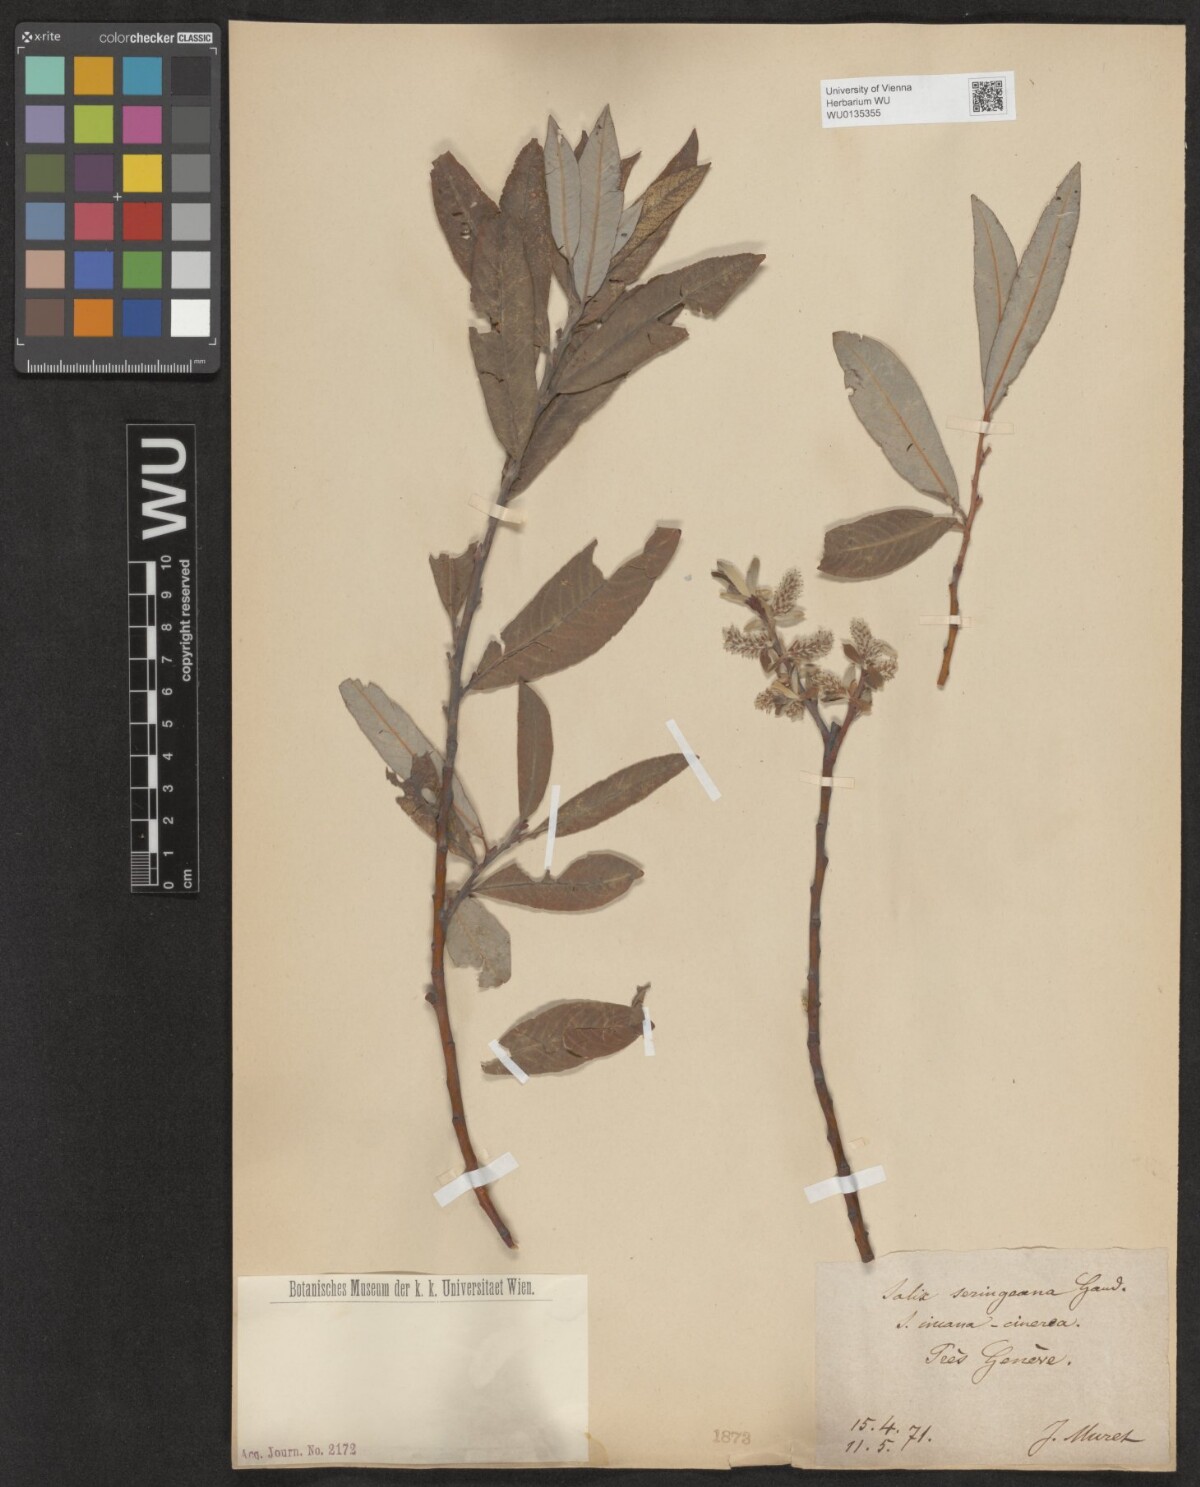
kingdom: Plantae
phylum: Tracheophyta
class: Magnoliopsida
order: Malpighiales
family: Salicaceae
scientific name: Salicaceae
